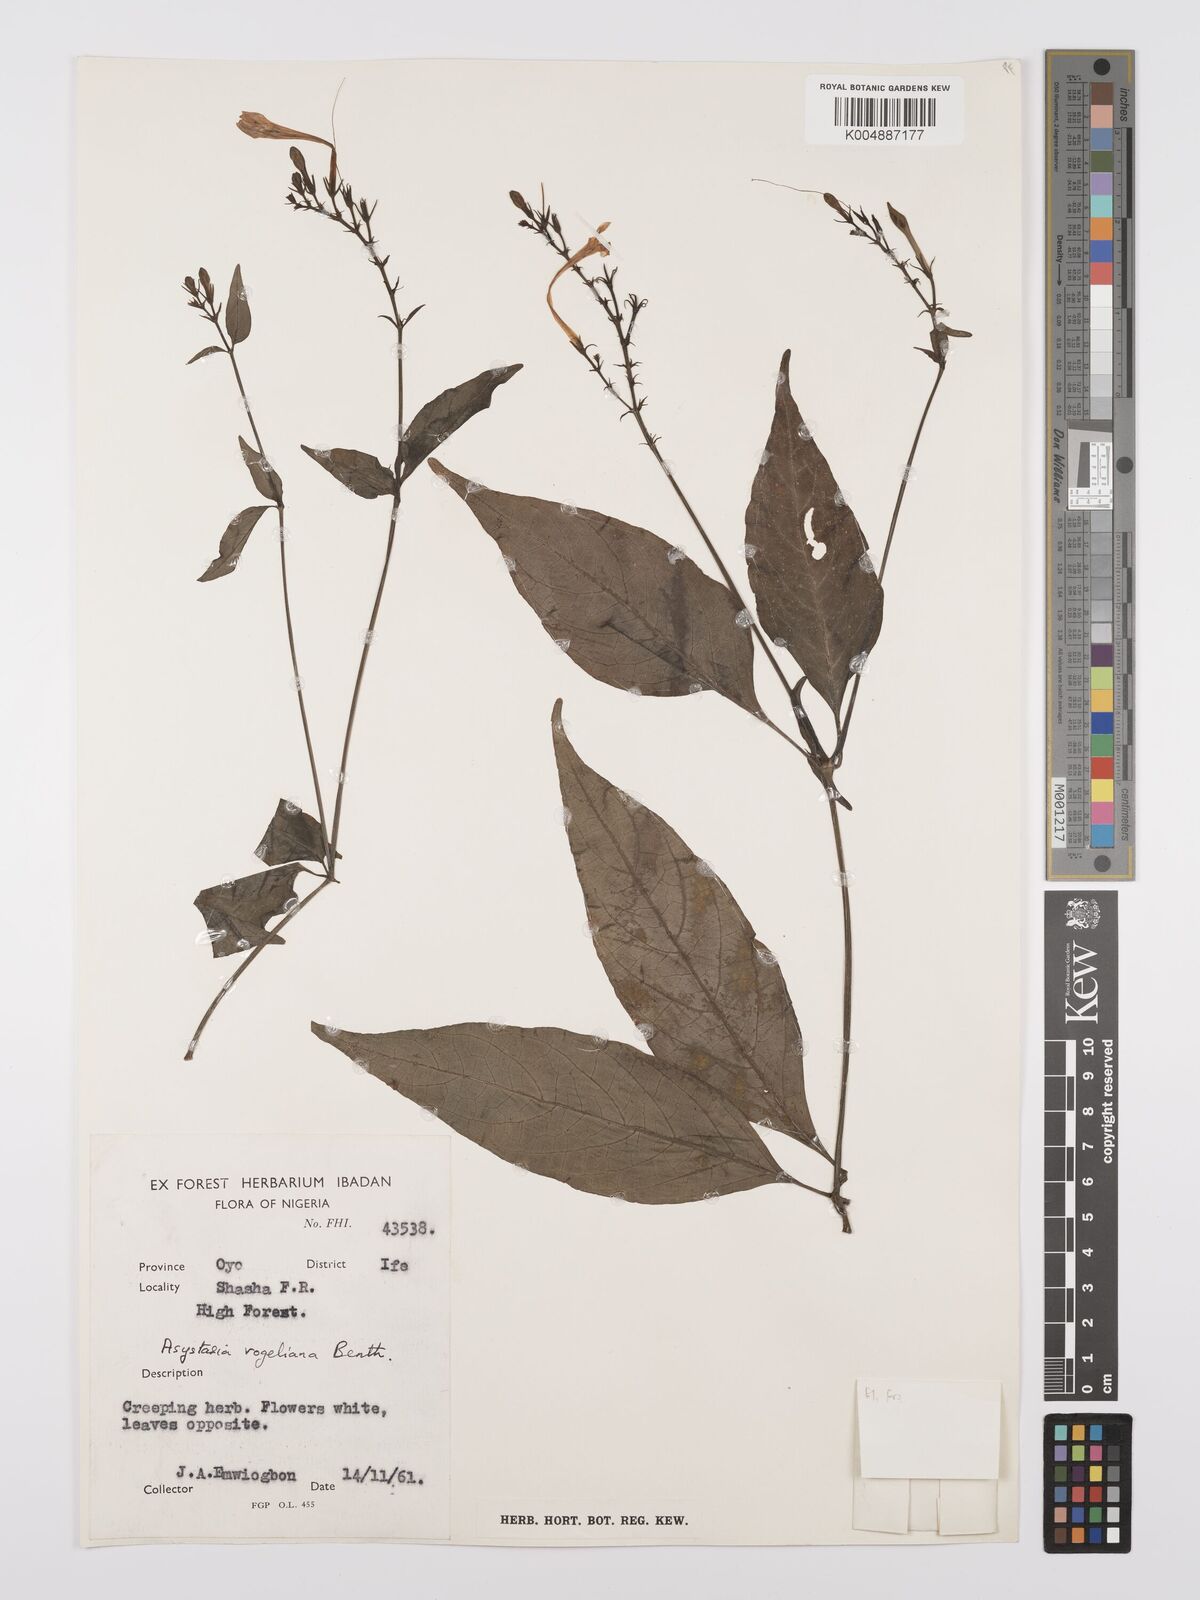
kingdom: Plantae
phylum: Tracheophyta
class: Magnoliopsida
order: Lamiales
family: Acanthaceae
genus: Asystasia
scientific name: Asystasia vogeliana
